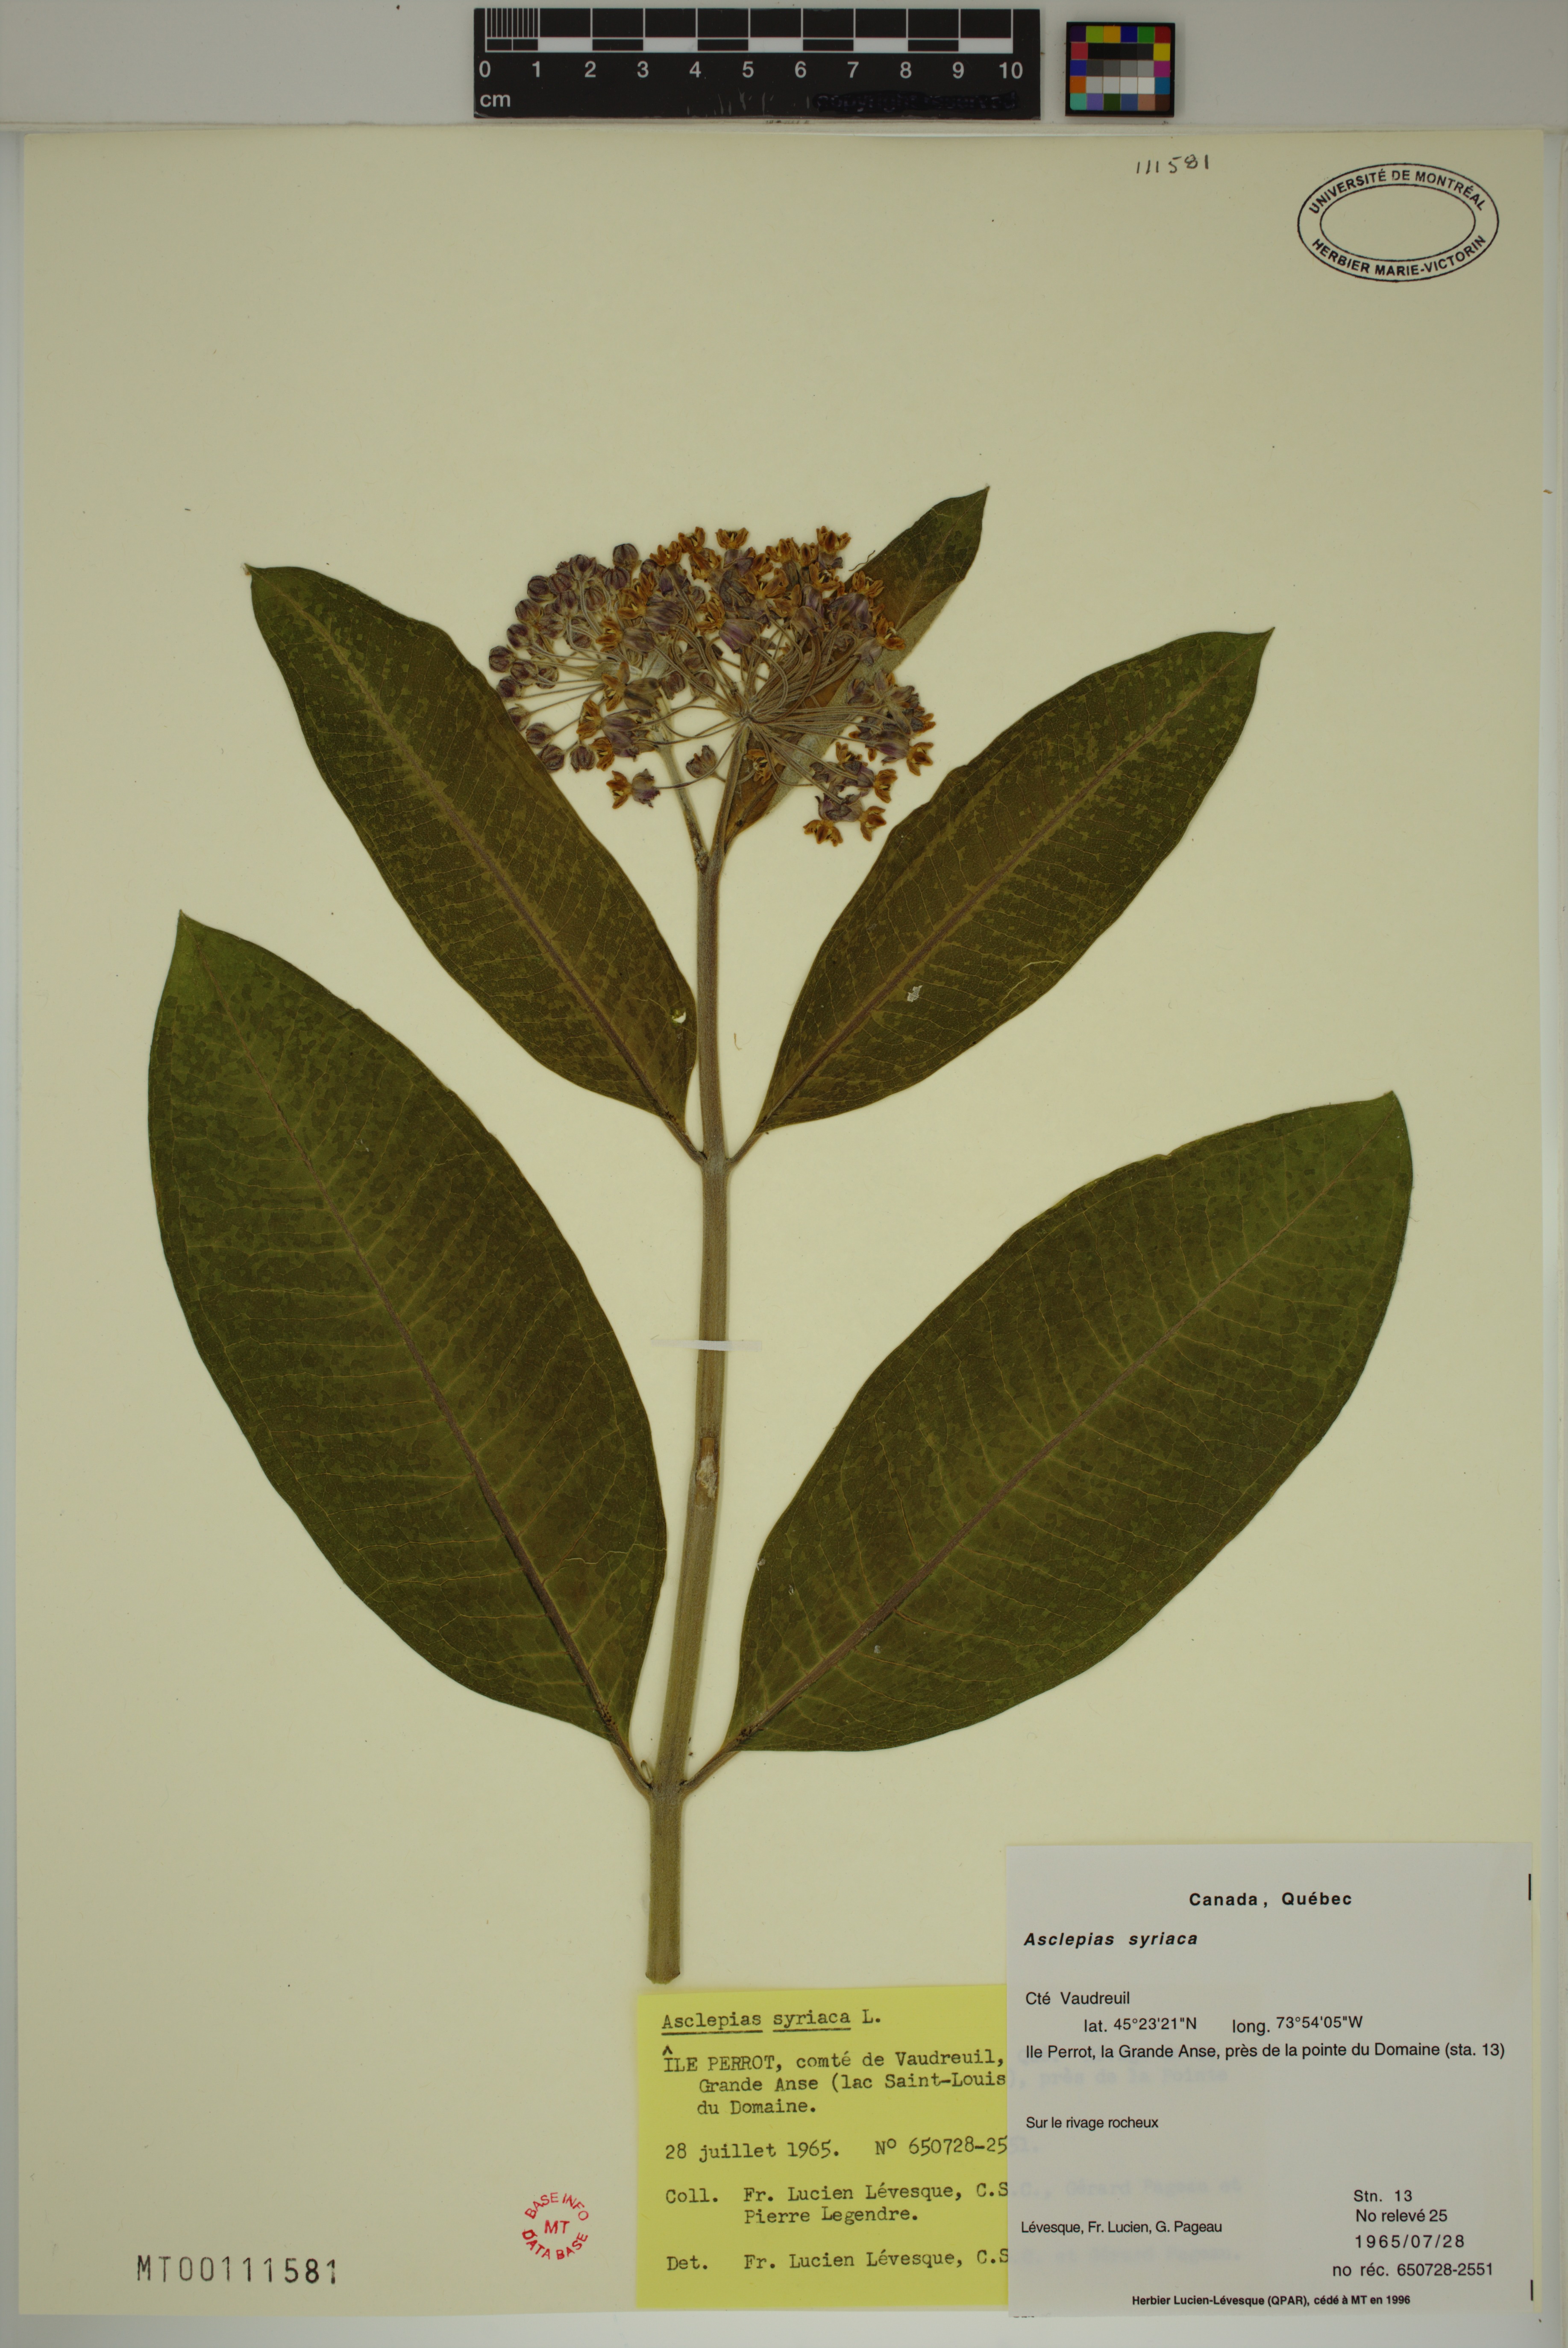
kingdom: Plantae
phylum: Tracheophyta
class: Magnoliopsida
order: Gentianales
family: Apocynaceae
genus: Asclepias
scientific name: Asclepias syriaca
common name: Common milkweed
